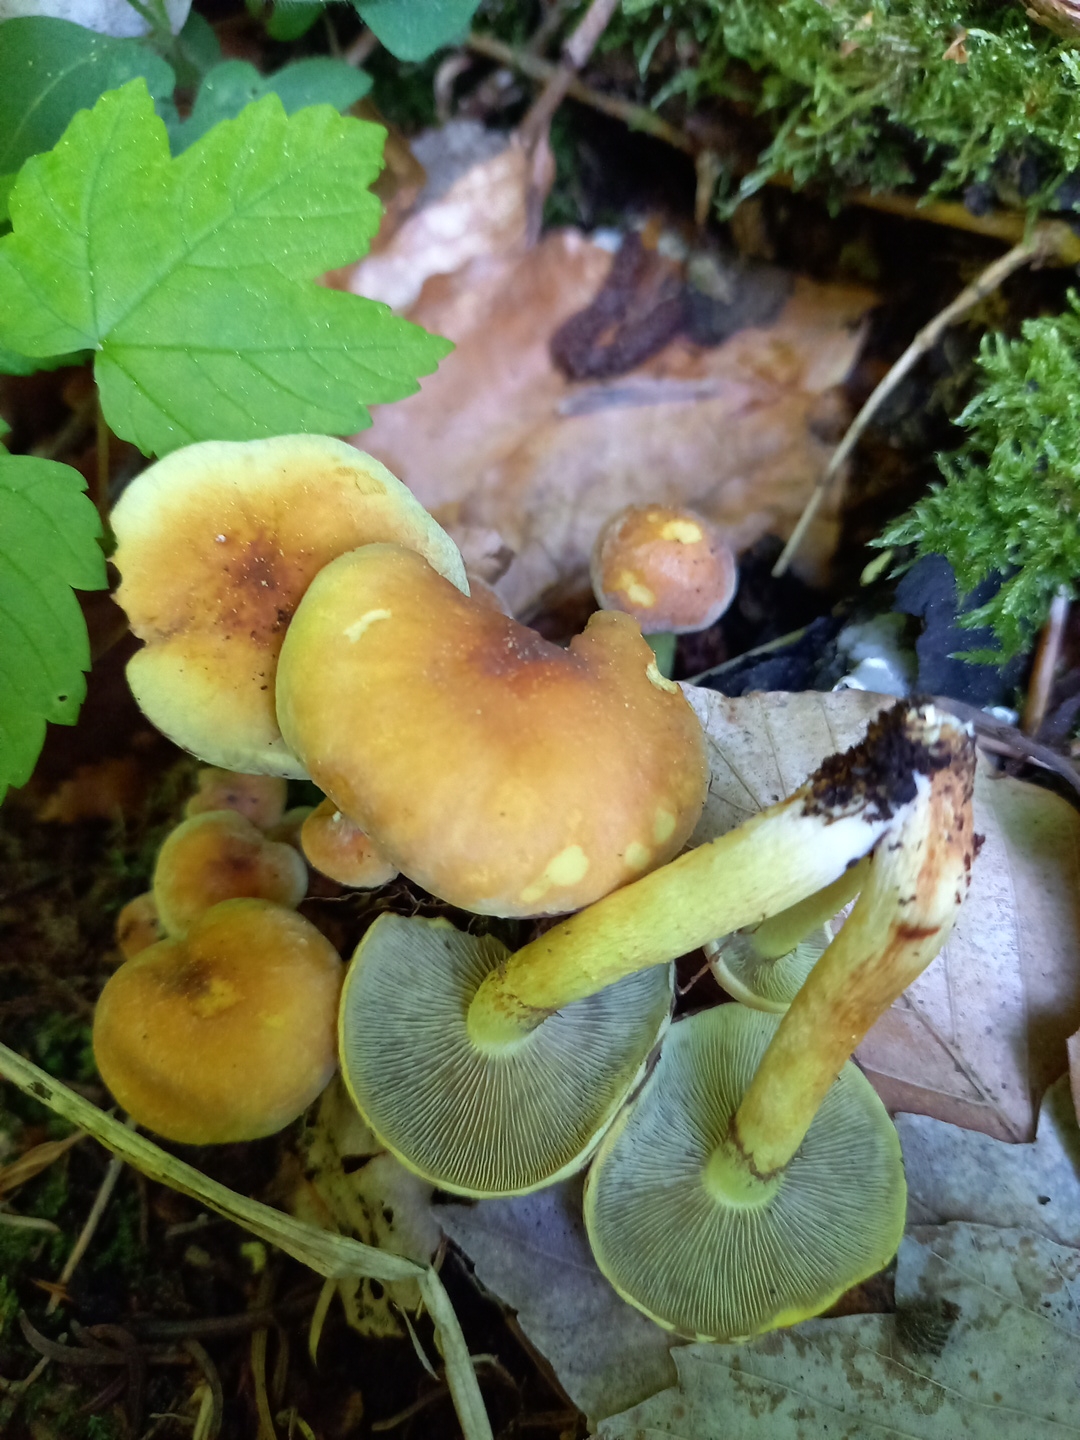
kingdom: Fungi
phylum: Basidiomycota
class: Agaricomycetes
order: Agaricales
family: Strophariaceae
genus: Hypholoma
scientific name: Hypholoma fasciculare
